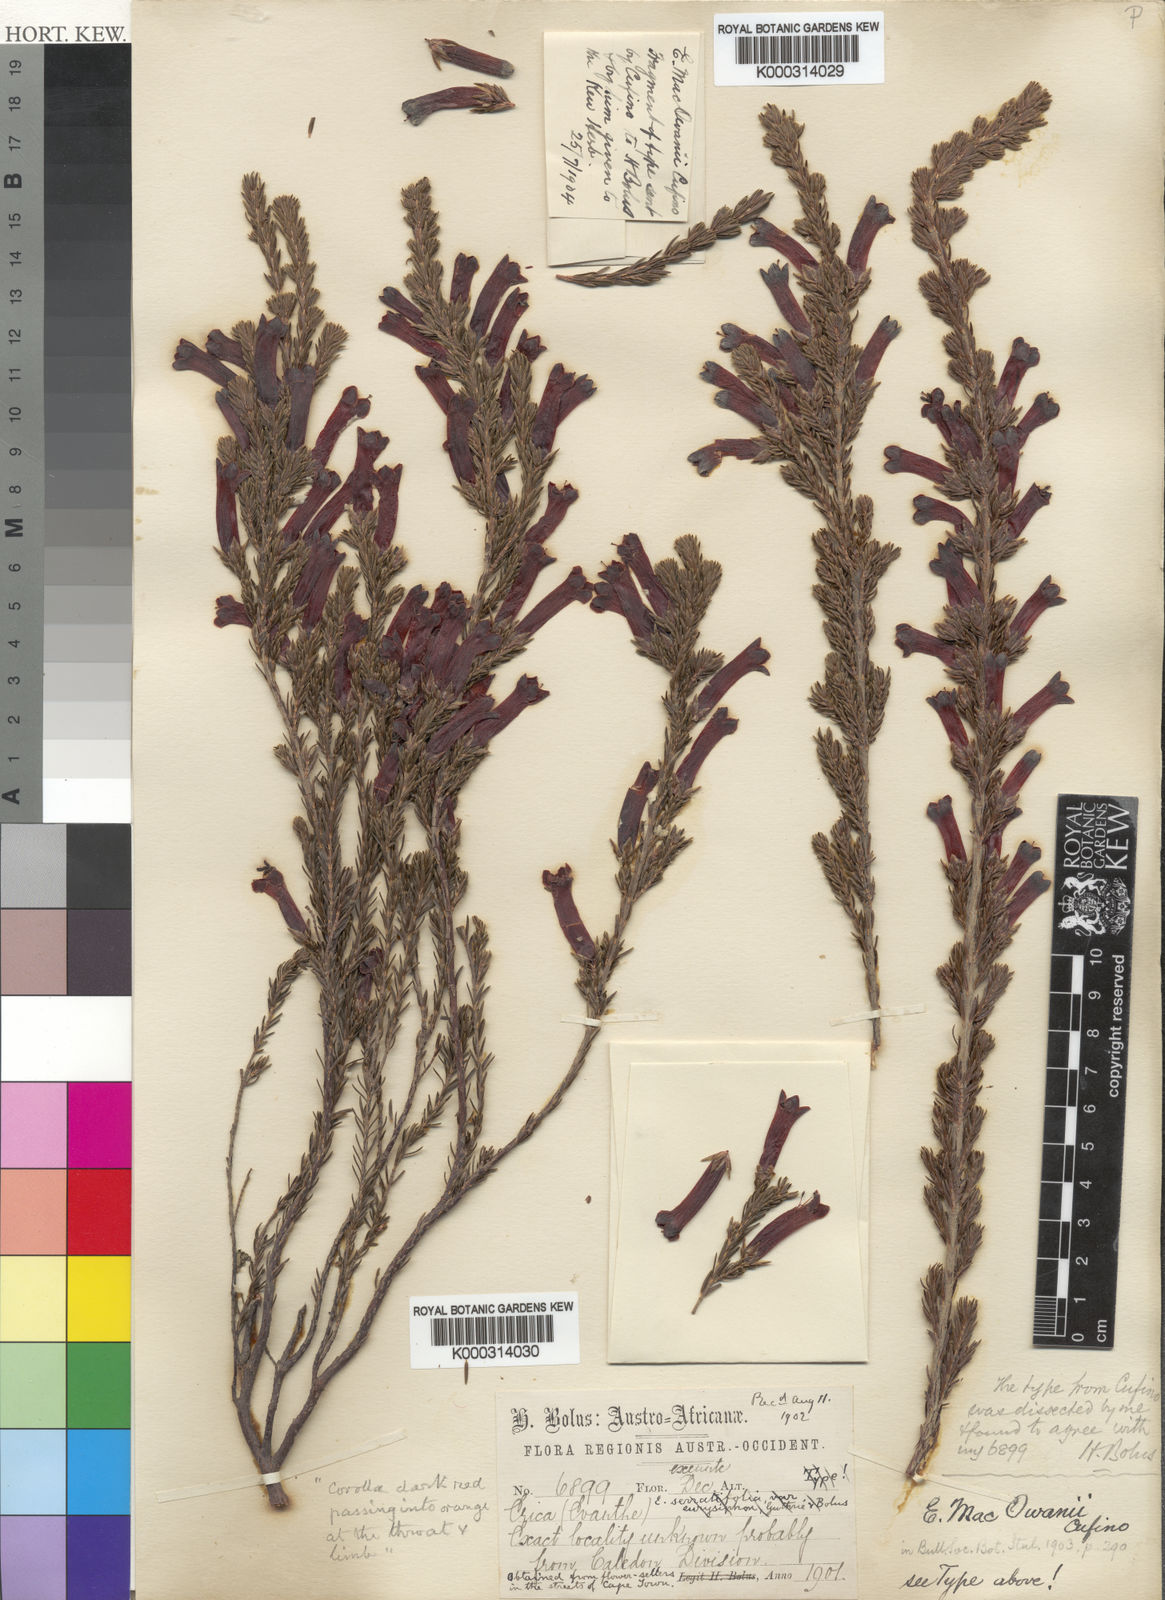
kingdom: Plantae
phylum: Tracheophyta
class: Magnoliopsida
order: Ericales
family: Ericaceae
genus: Erica
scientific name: Erica macowanii
